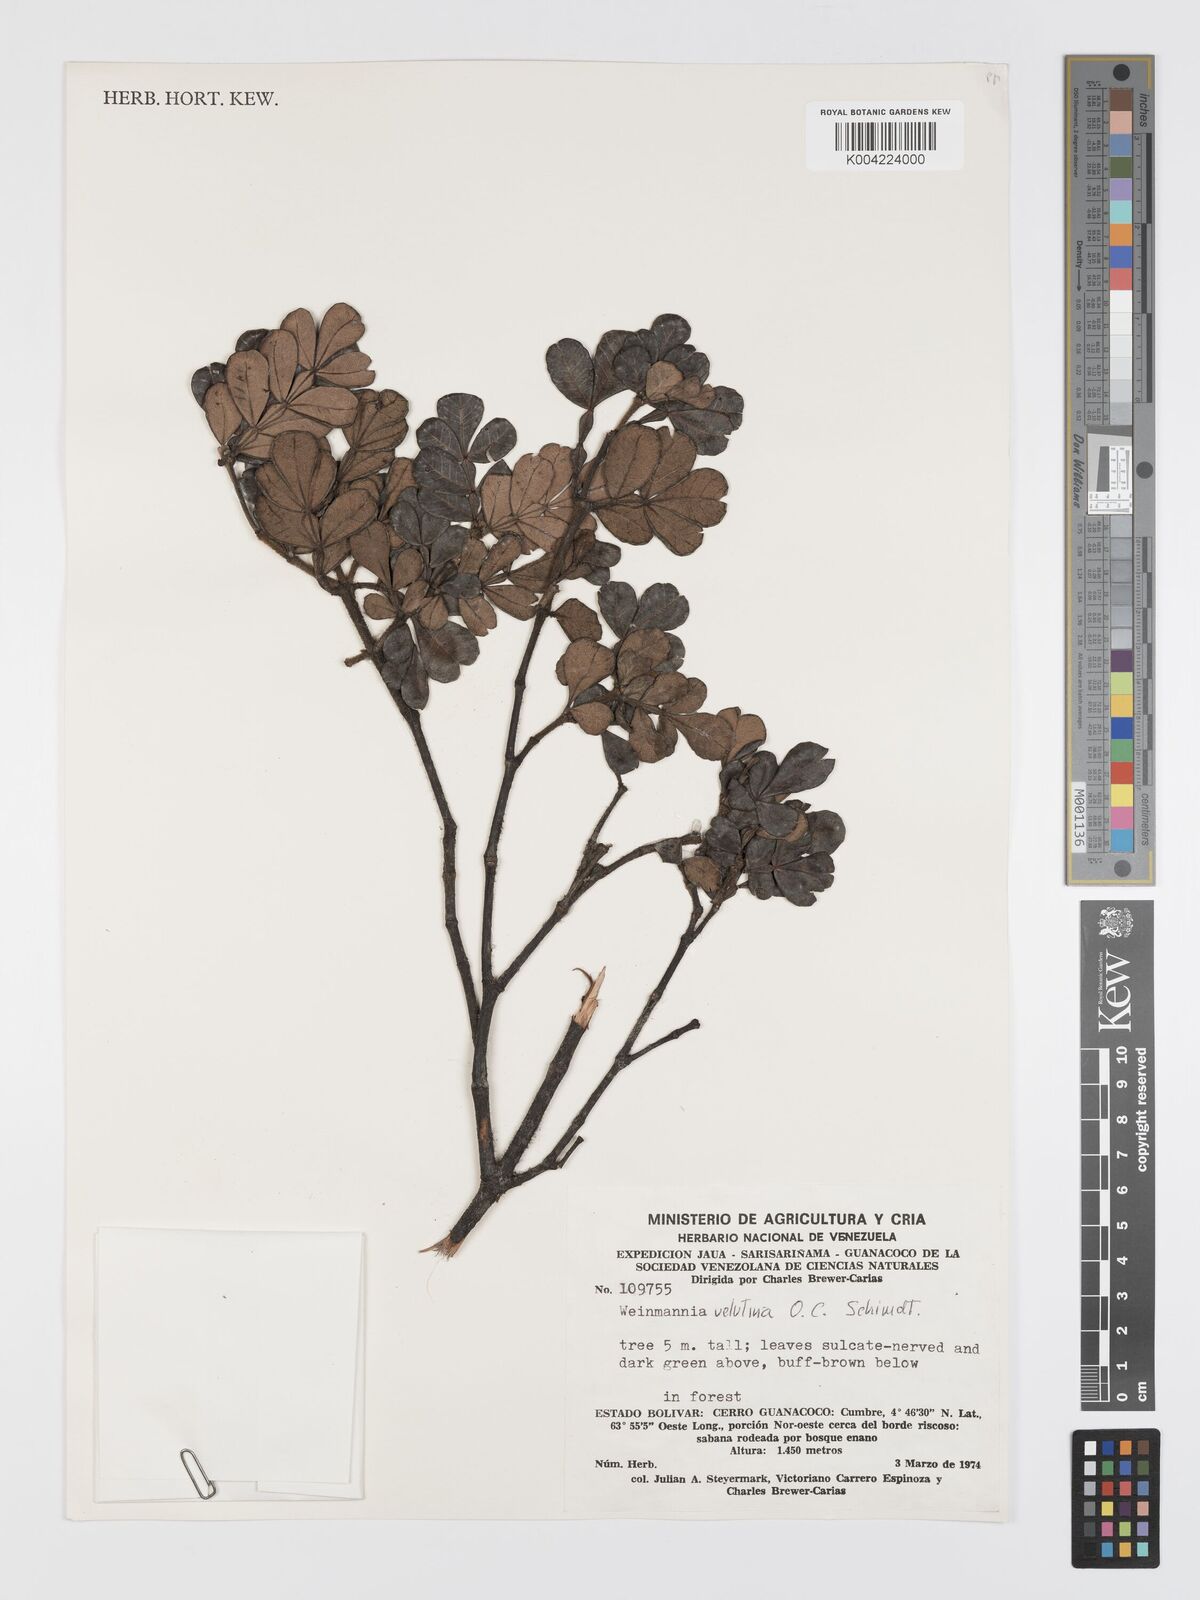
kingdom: Plantae
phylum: Tracheophyta
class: Magnoliopsida
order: Oxalidales
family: Cunoniaceae
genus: Weinmannia
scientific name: Weinmannia velutina
